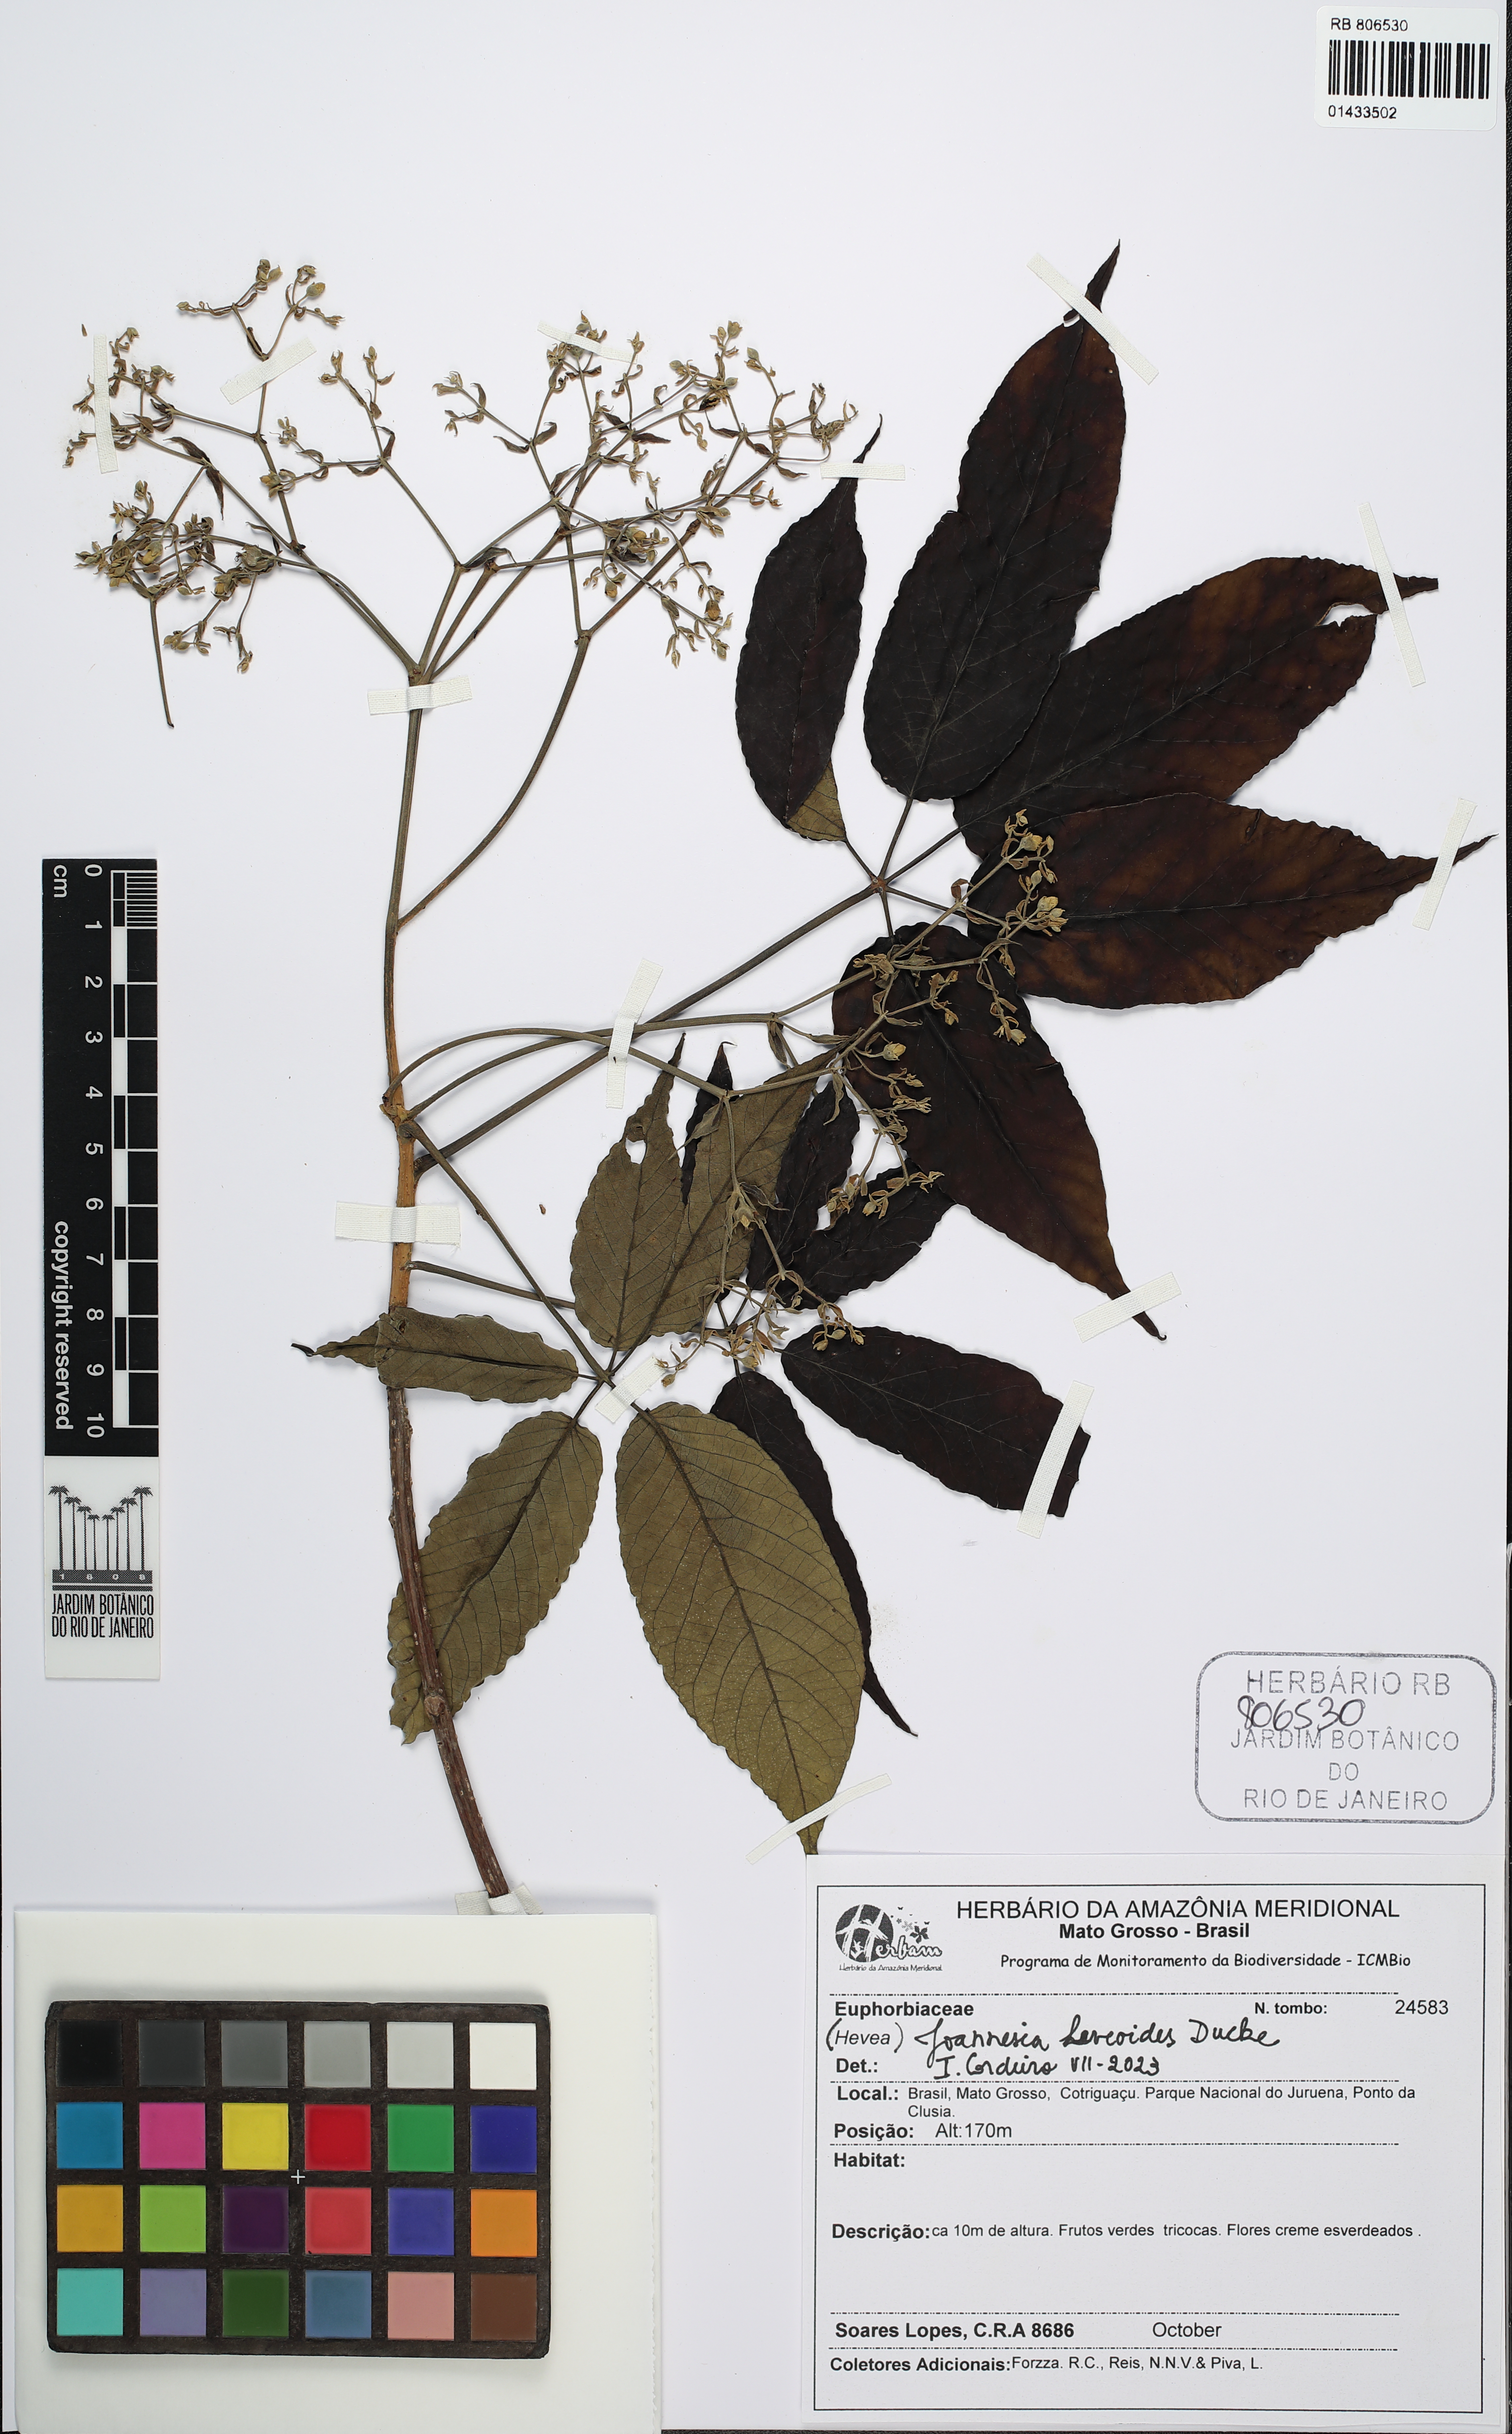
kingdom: Plantae
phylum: Tracheophyta
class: Magnoliopsida
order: Malpighiales
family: Euphorbiaceae
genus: Joannesia
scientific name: Joannesia heveoides
